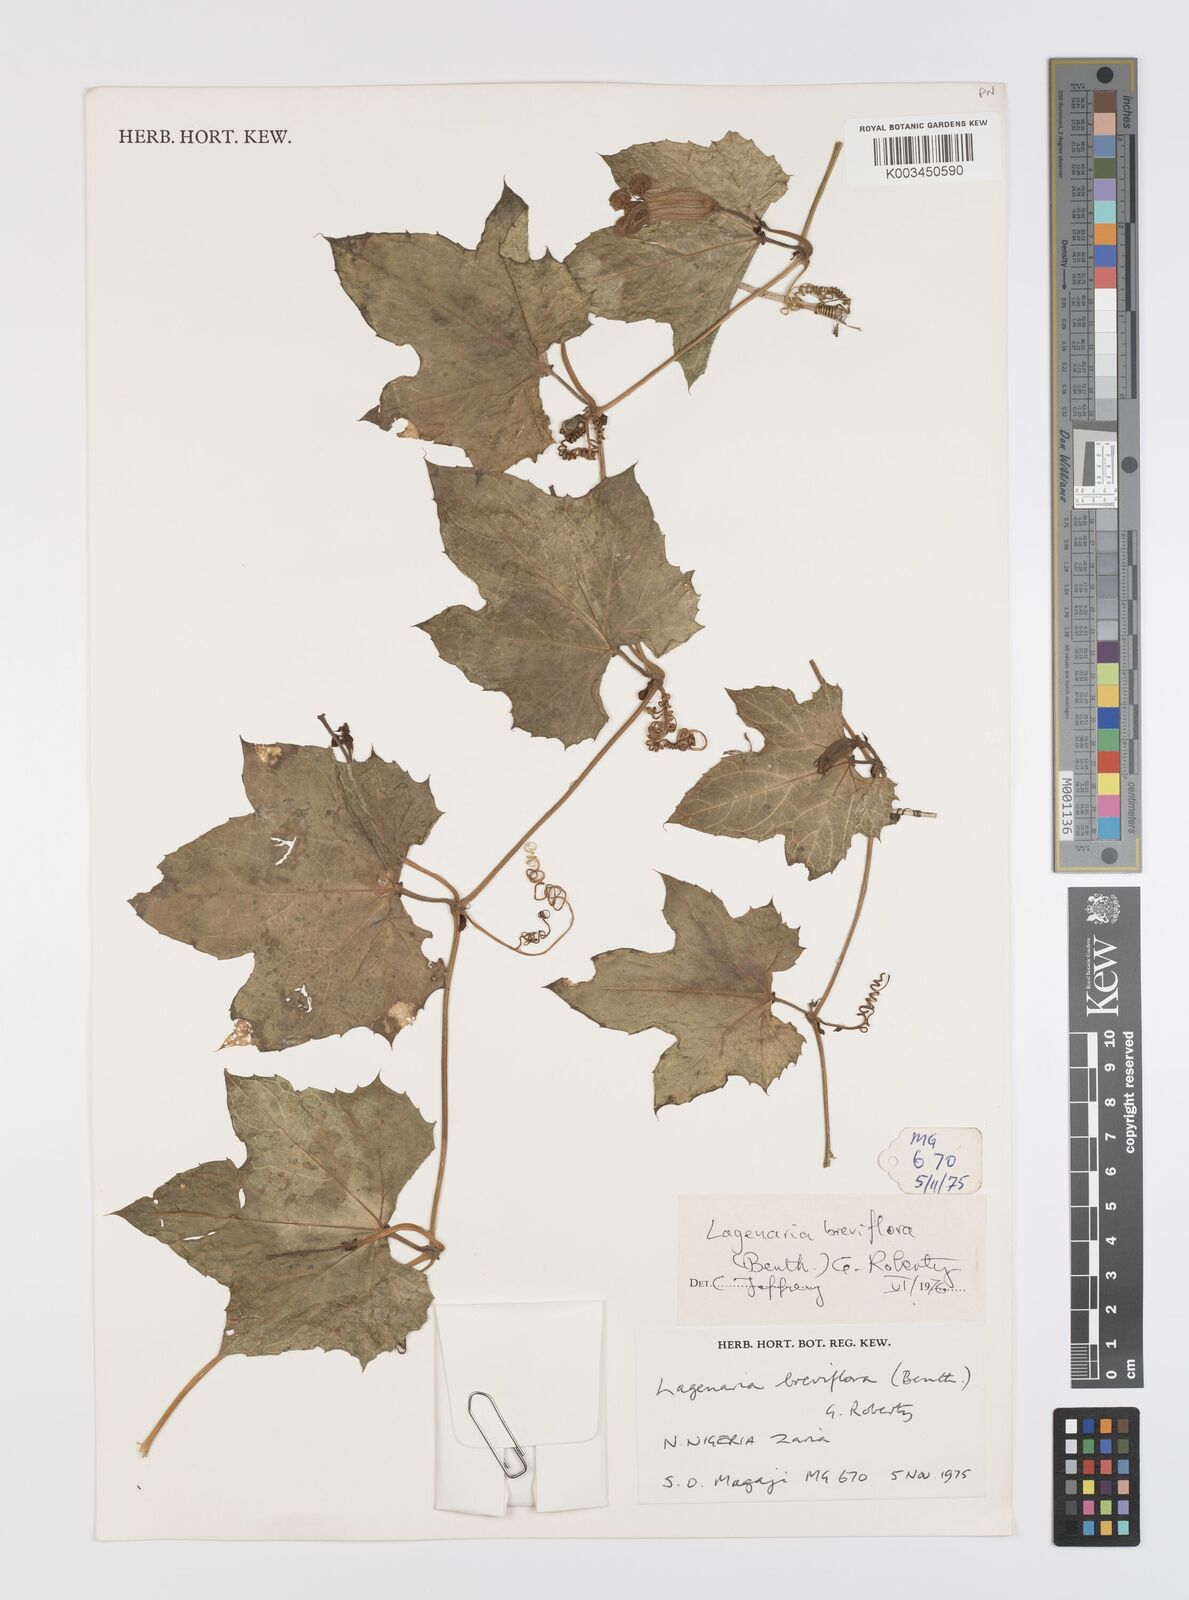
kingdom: Plantae
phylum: Tracheophyta
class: Magnoliopsida
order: Cucurbitales
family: Cucurbitaceae
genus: Lagenaria
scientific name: Lagenaria breviflora
